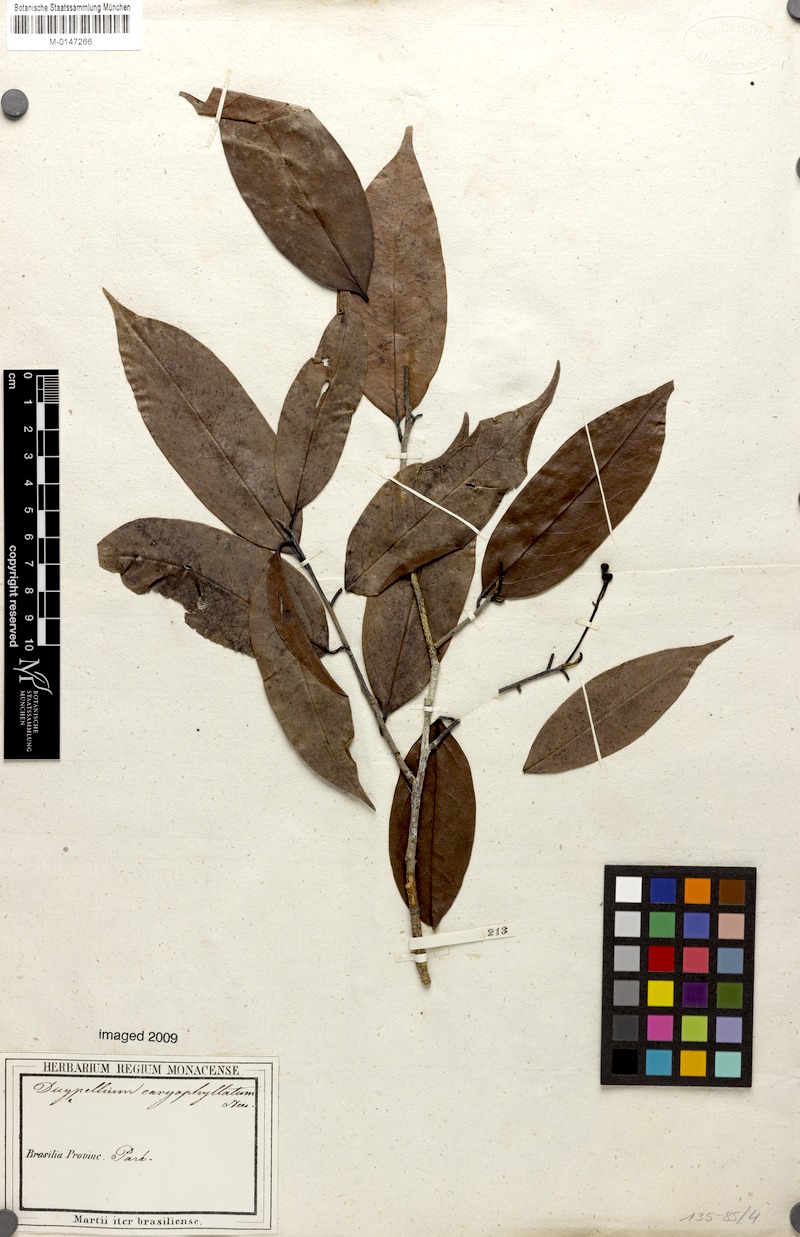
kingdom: Plantae
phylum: Tracheophyta
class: Magnoliopsida
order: Laurales
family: Lauraceae
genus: Dicypellium
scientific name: Dicypellium caryophyllaceum
